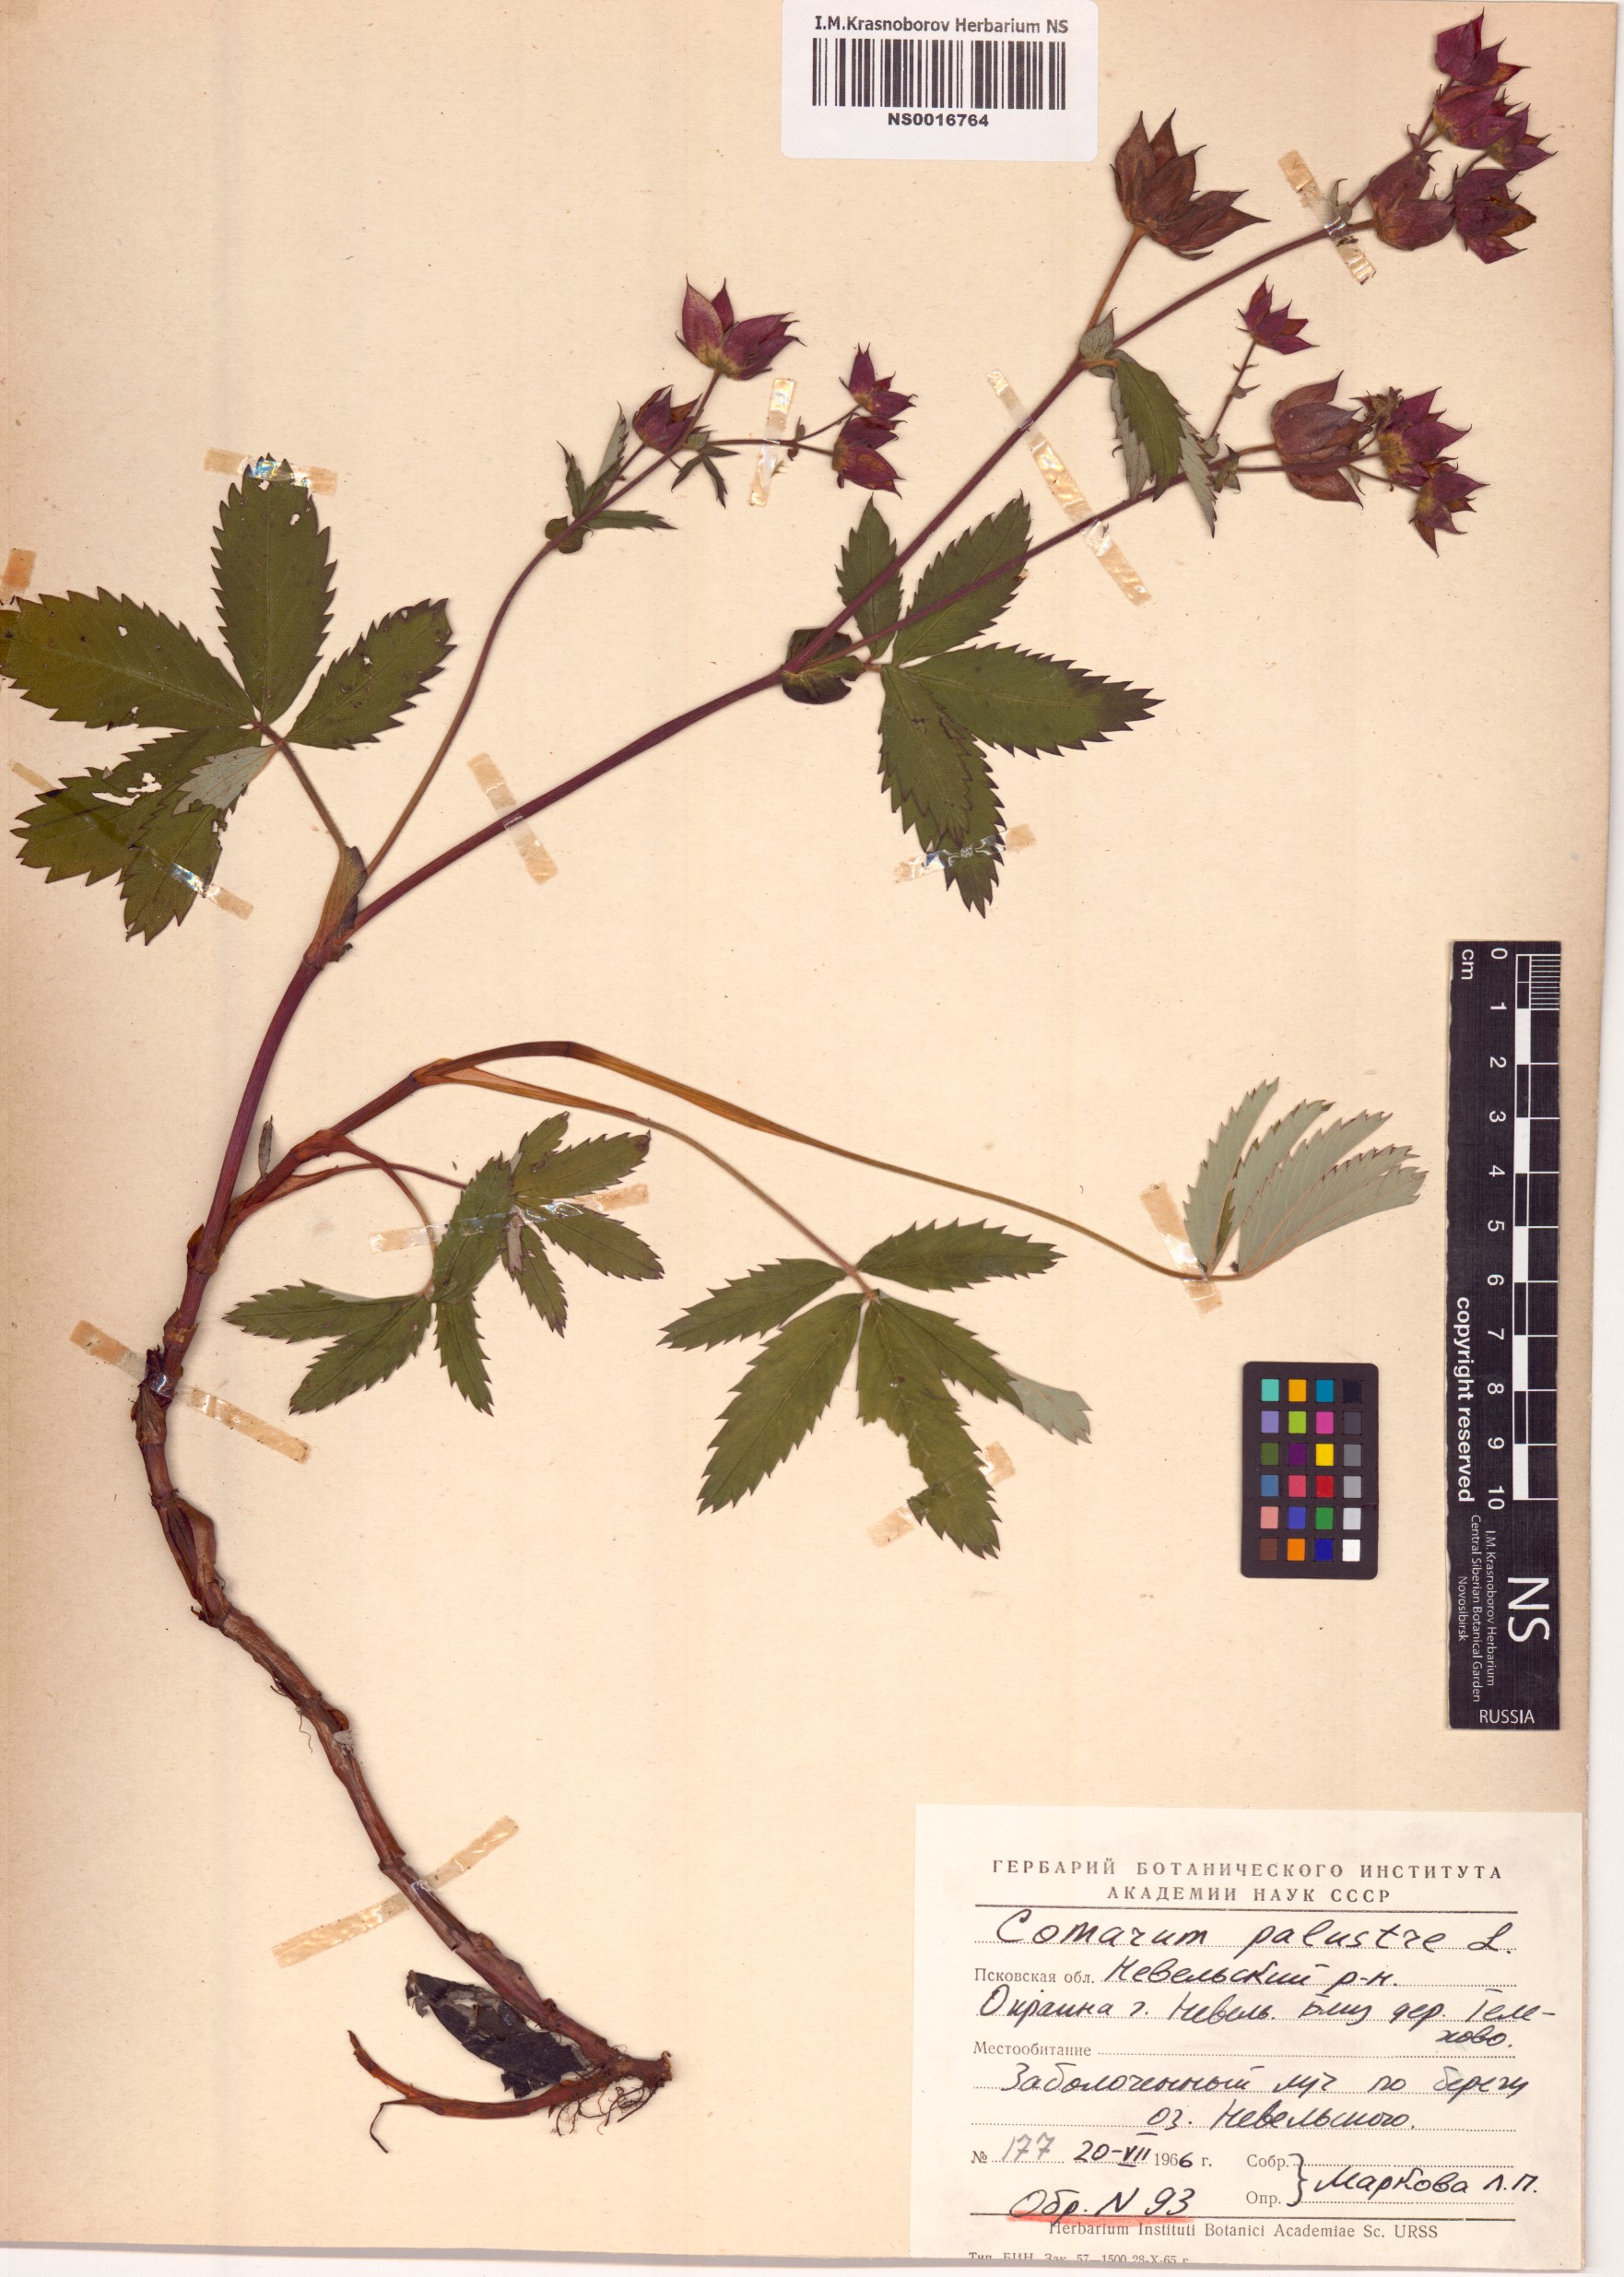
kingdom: Plantae
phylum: Tracheophyta
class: Magnoliopsida
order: Rosales
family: Rosaceae
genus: Comarum
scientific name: Comarum palustre
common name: Marsh cinquefoil
